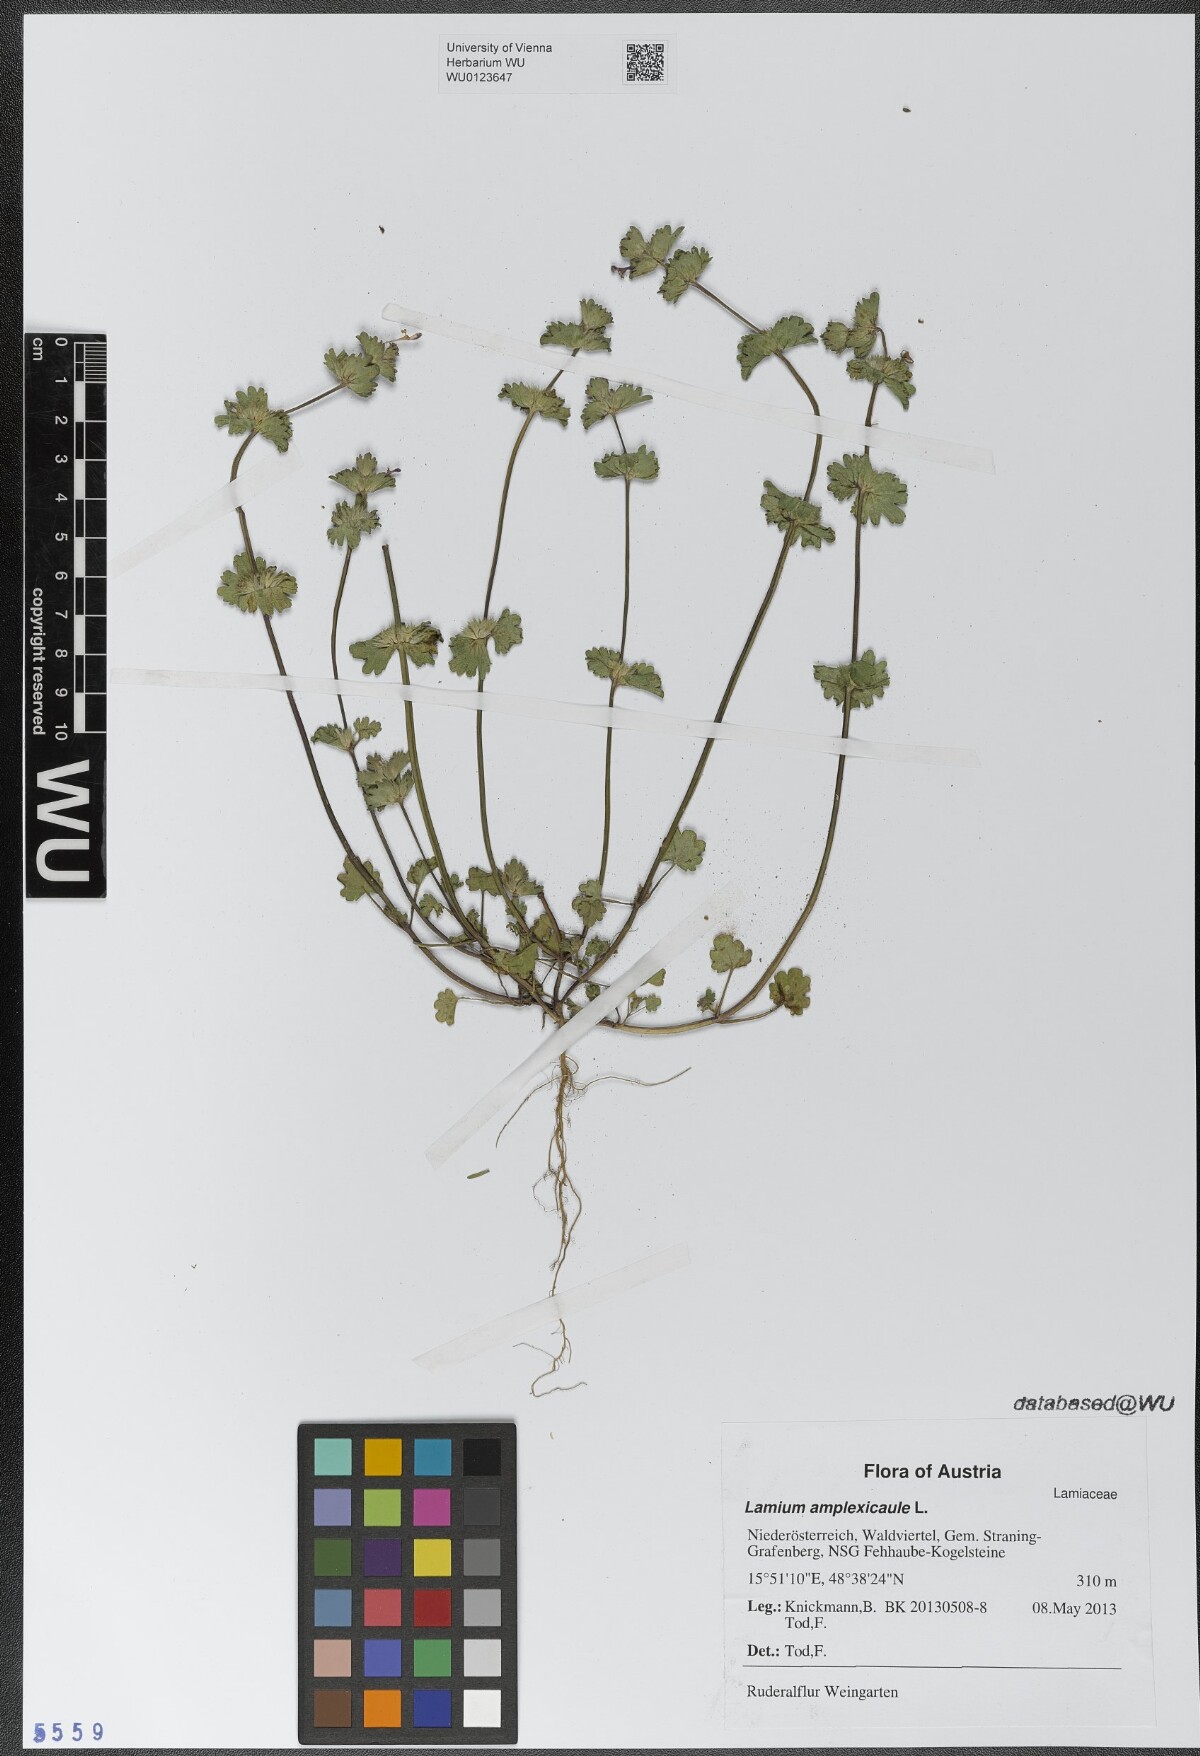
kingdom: Plantae
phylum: Tracheophyta
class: Magnoliopsida
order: Lamiales
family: Lamiaceae
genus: Lamium
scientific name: Lamium amplexicaule
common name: Henbit dead-nettle
